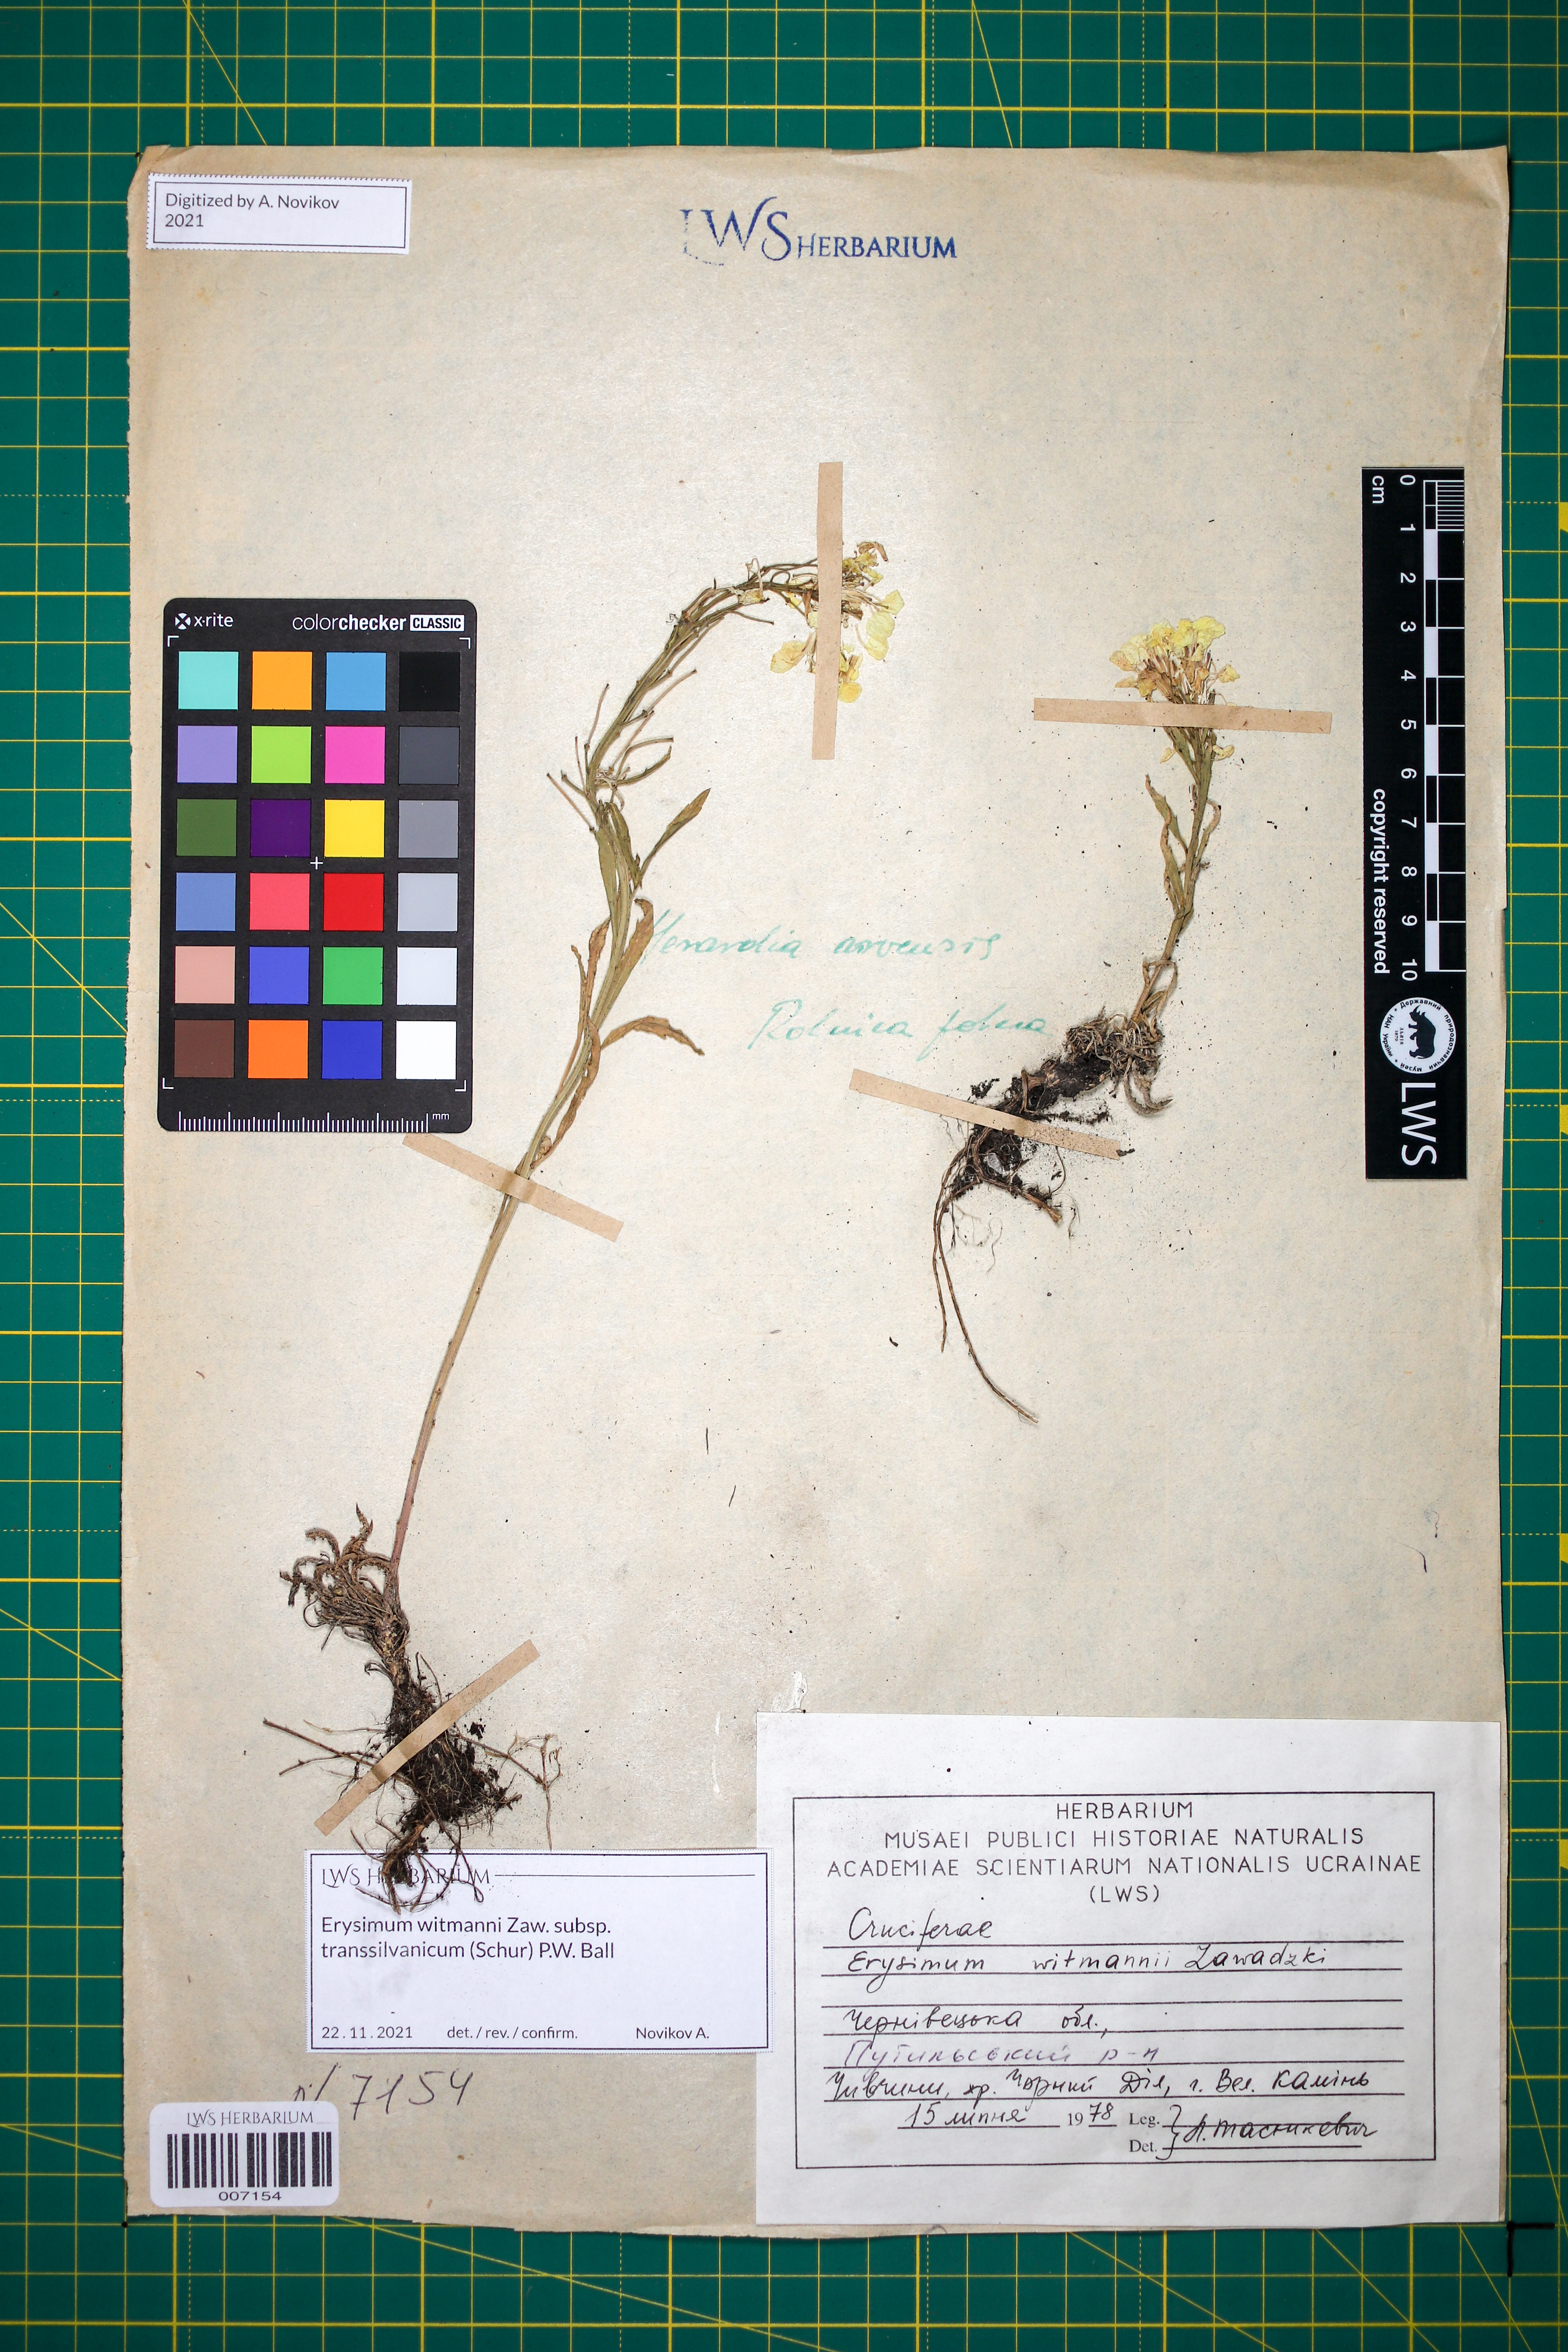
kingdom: Plantae
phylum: Tracheophyta
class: Magnoliopsida
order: Brassicales
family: Brassicaceae
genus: Erysimum
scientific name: Erysimum transsilvanicum
